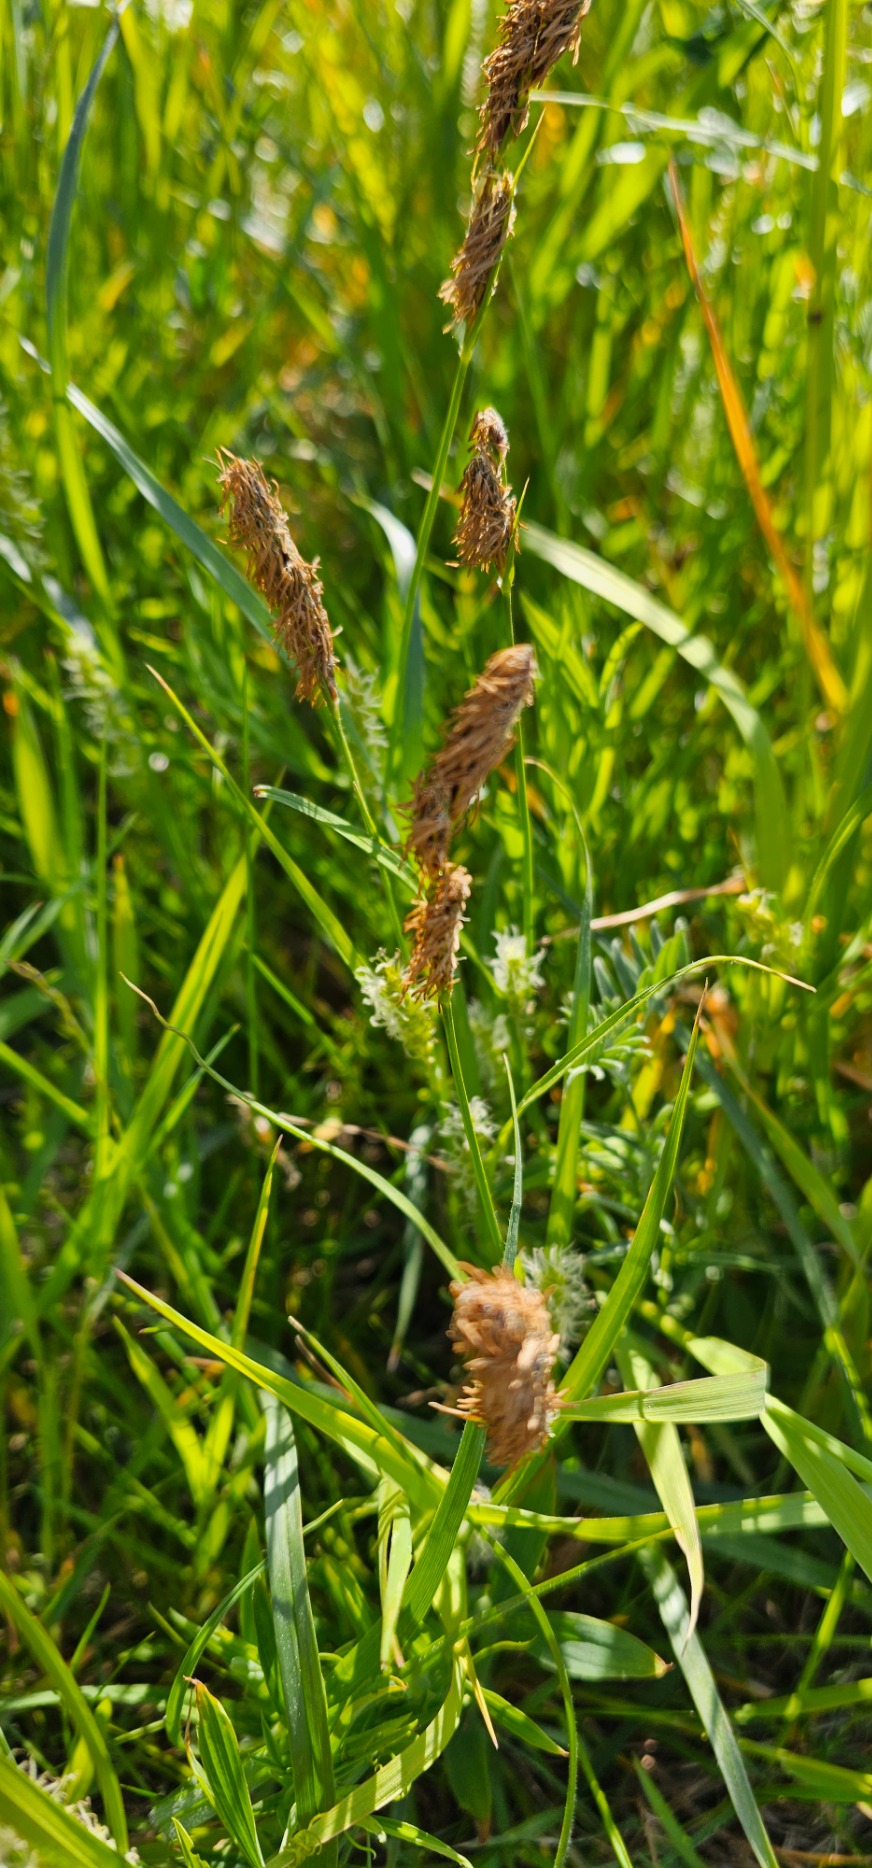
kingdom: Plantae
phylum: Tracheophyta
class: Liliopsida
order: Poales
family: Cyperaceae
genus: Carex
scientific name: Carex hirta
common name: Håret star
